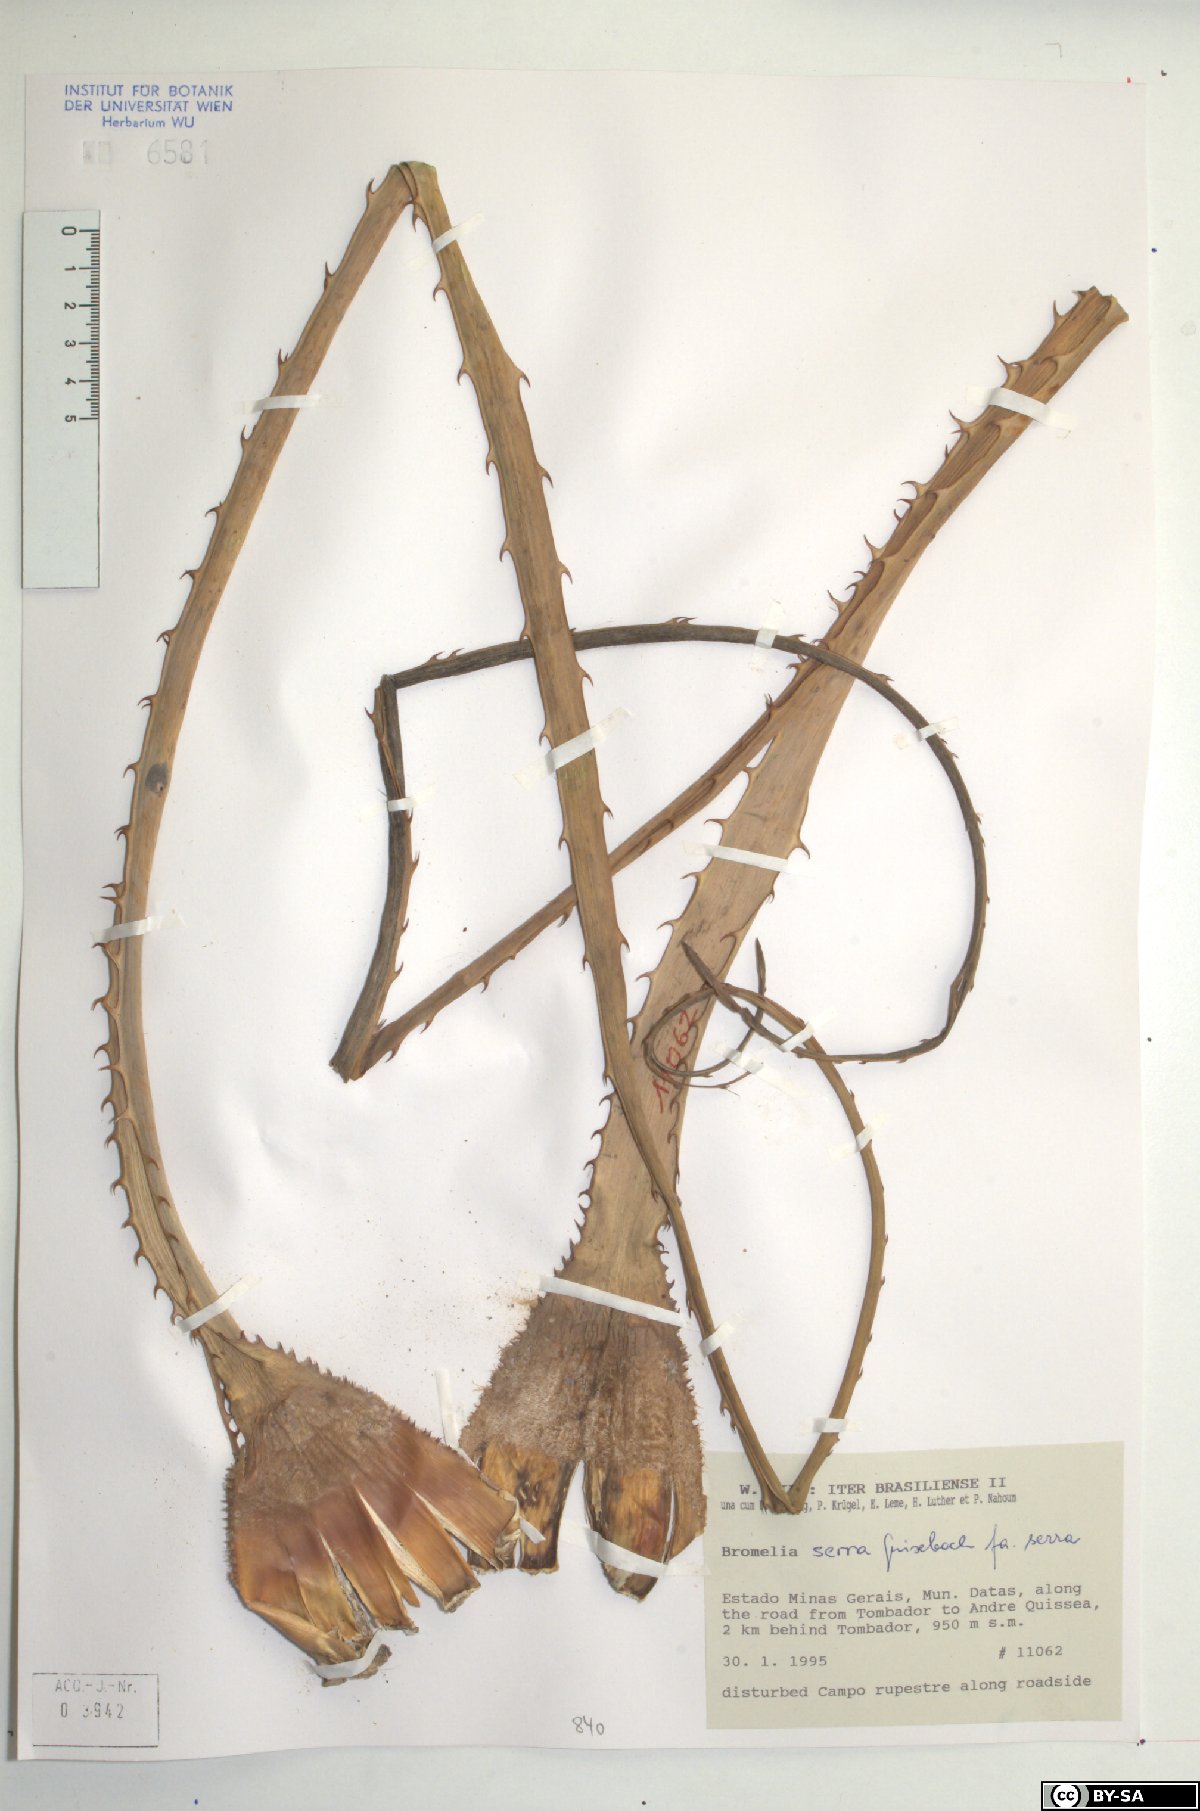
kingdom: Plantae
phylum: Tracheophyta
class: Liliopsida
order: Poales
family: Bromeliaceae
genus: Bromelia
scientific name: Bromelia serra
